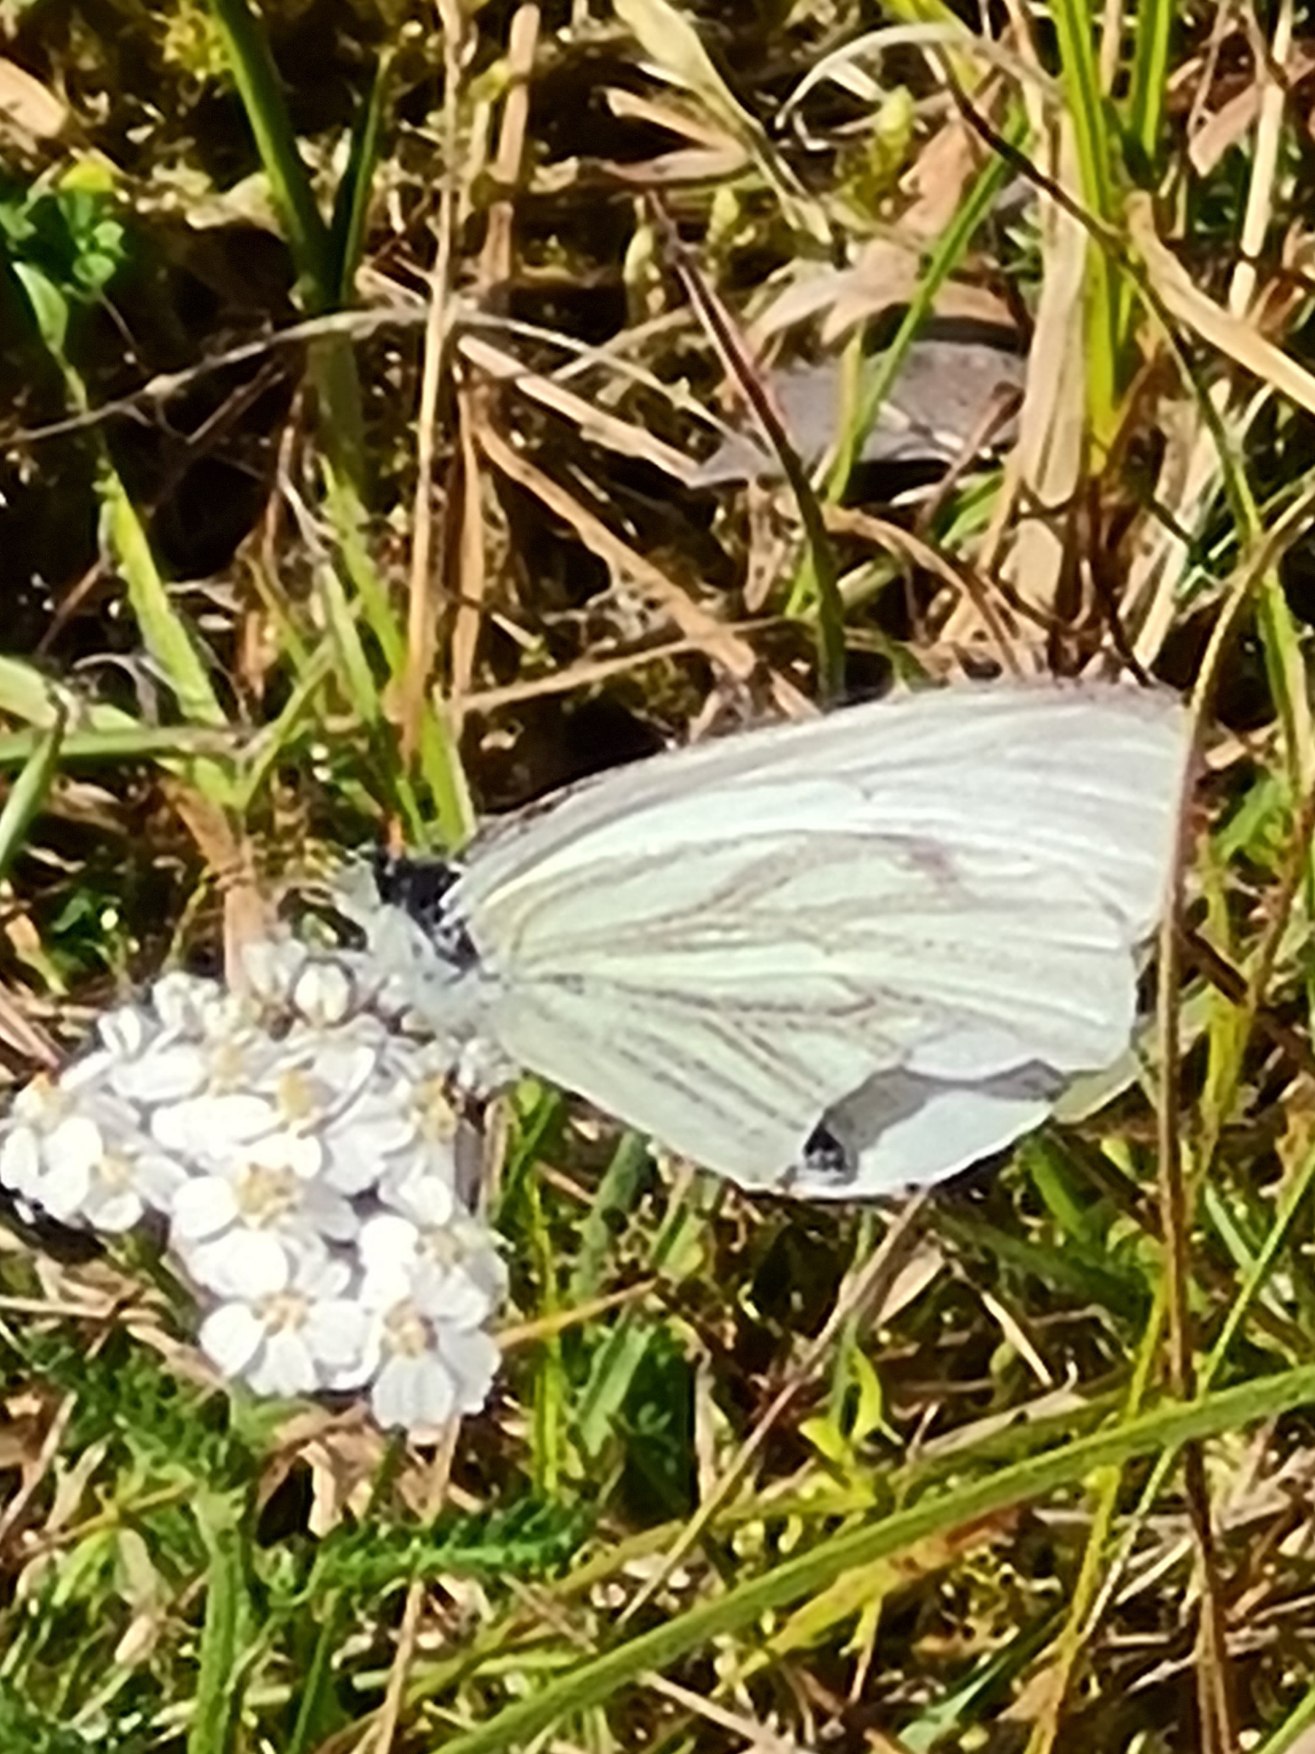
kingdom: Animalia
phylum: Arthropoda
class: Insecta
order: Lepidoptera
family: Pieridae
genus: Pieris
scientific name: Pieris napi
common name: Grønåret kålsommerfugl
